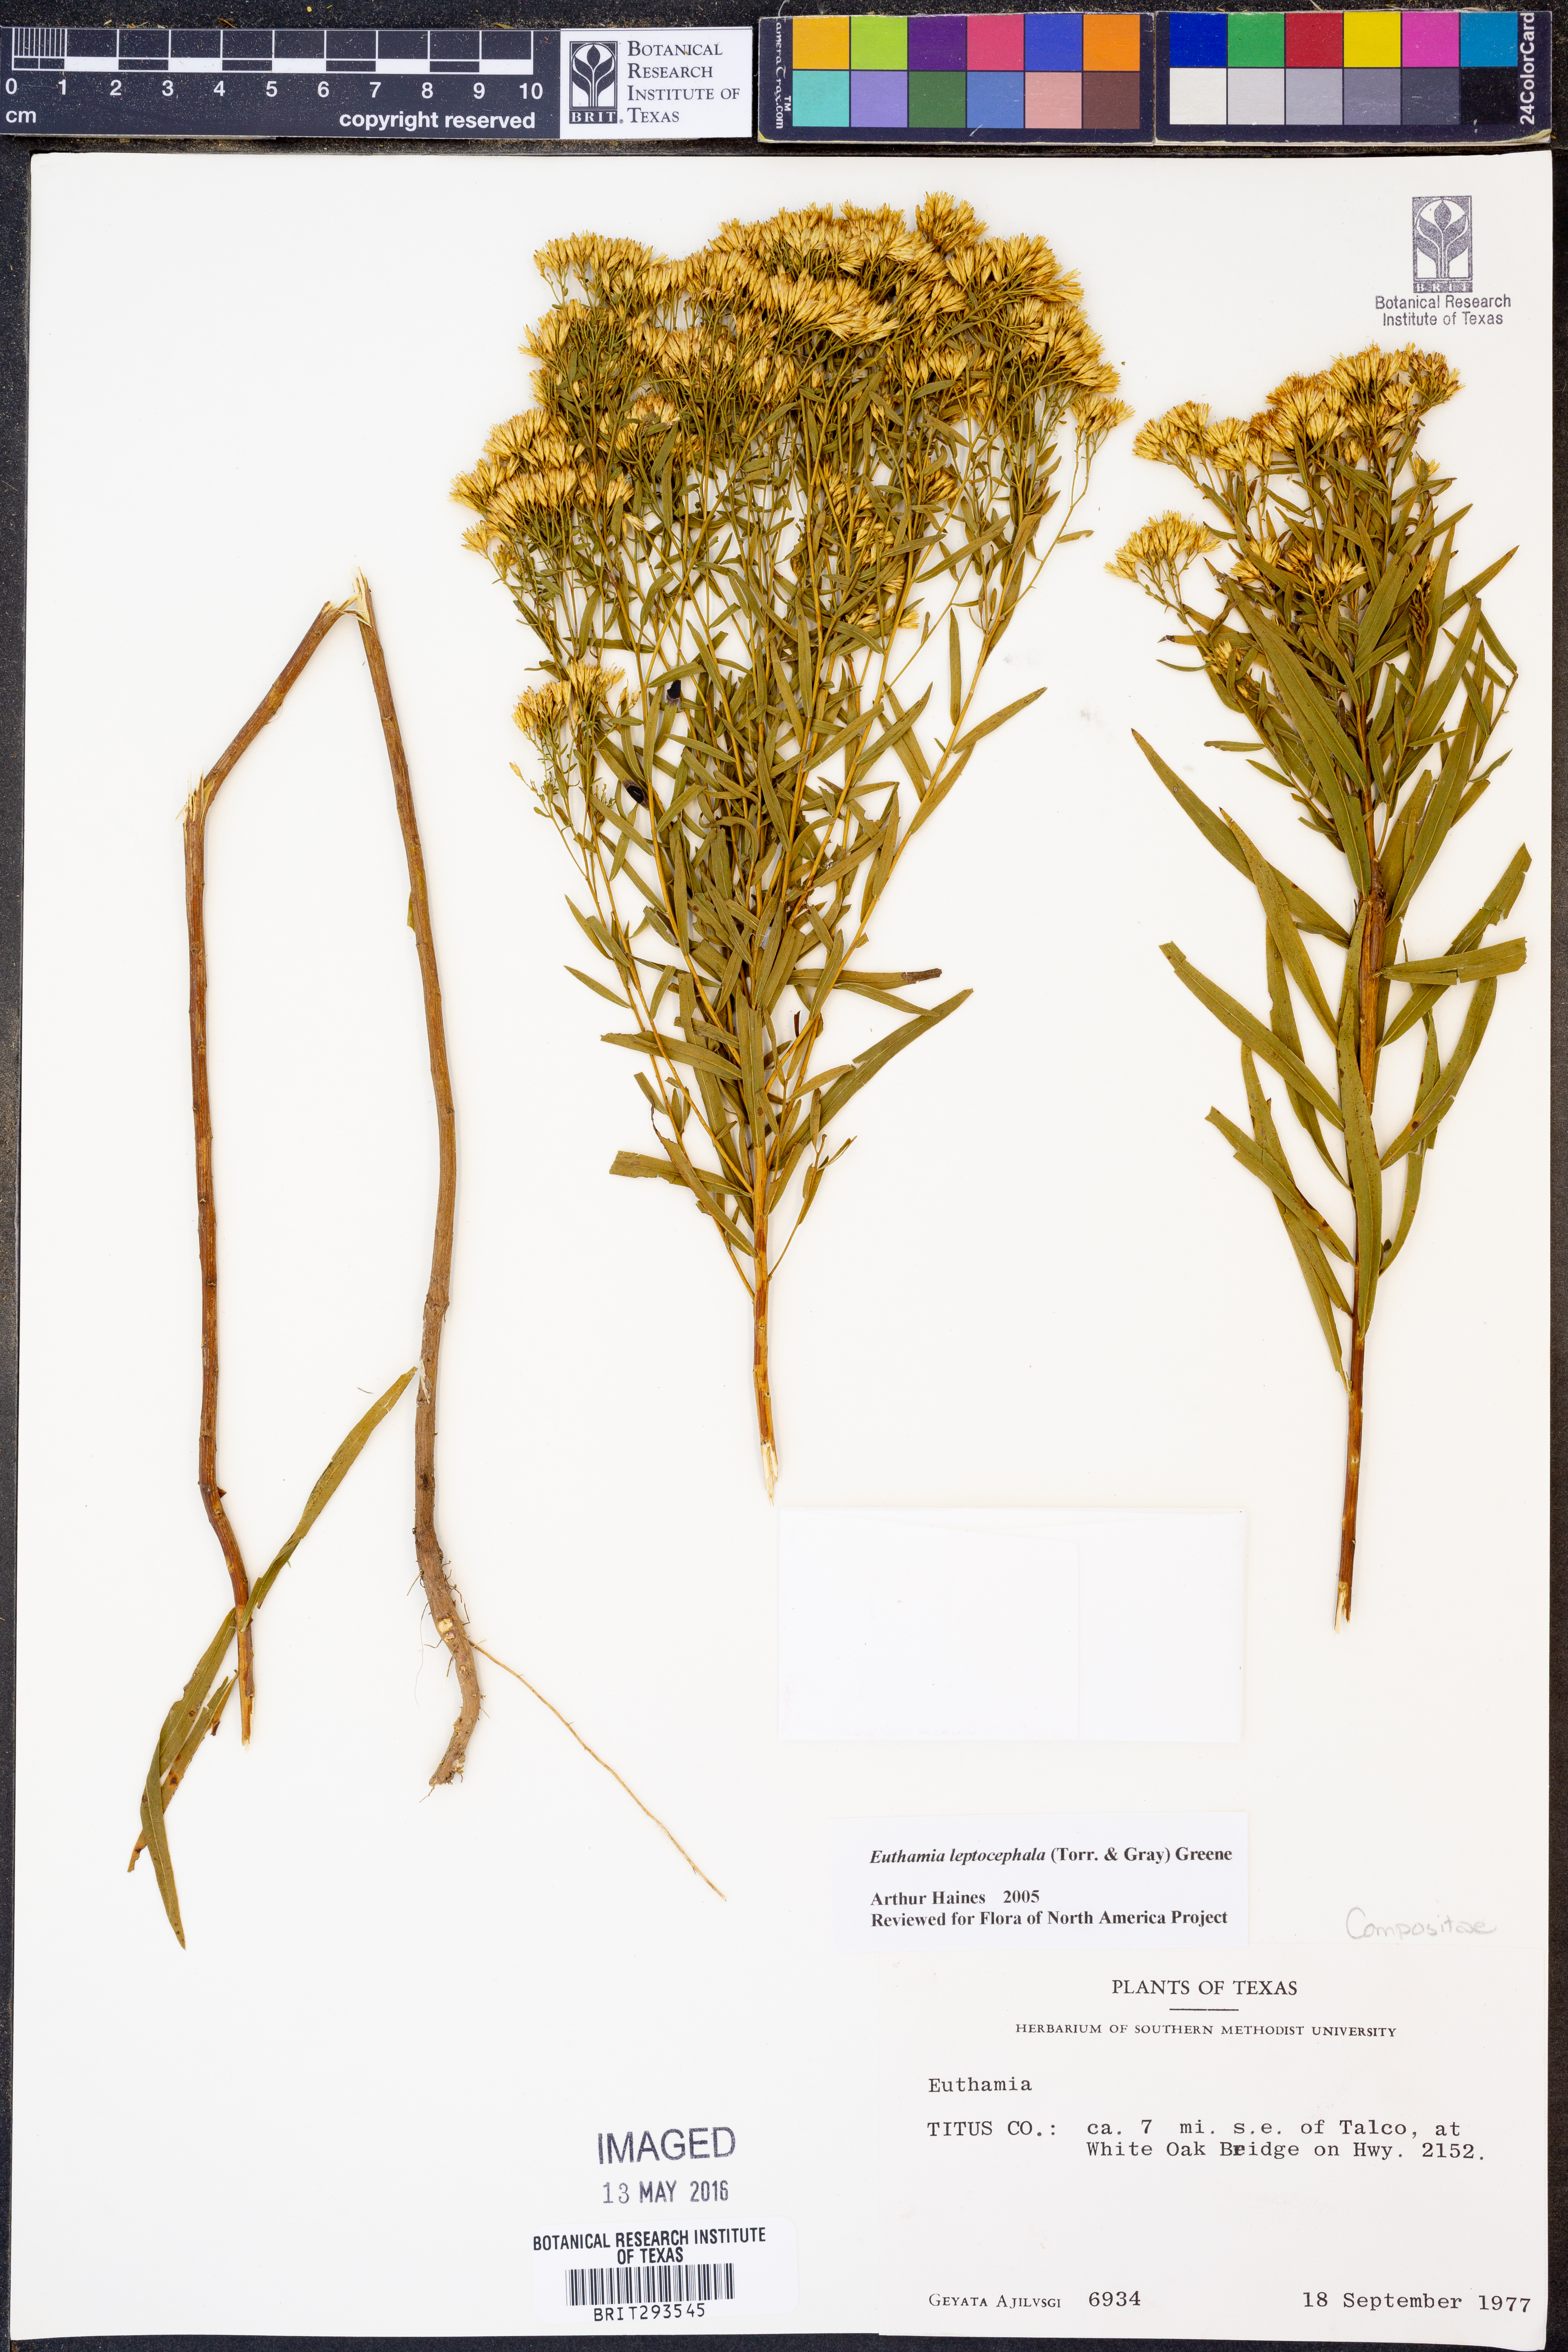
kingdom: Plantae
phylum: Tracheophyta
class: Magnoliopsida
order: Asterales
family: Asteraceae
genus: Euthamia
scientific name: Euthamia leptocephala
